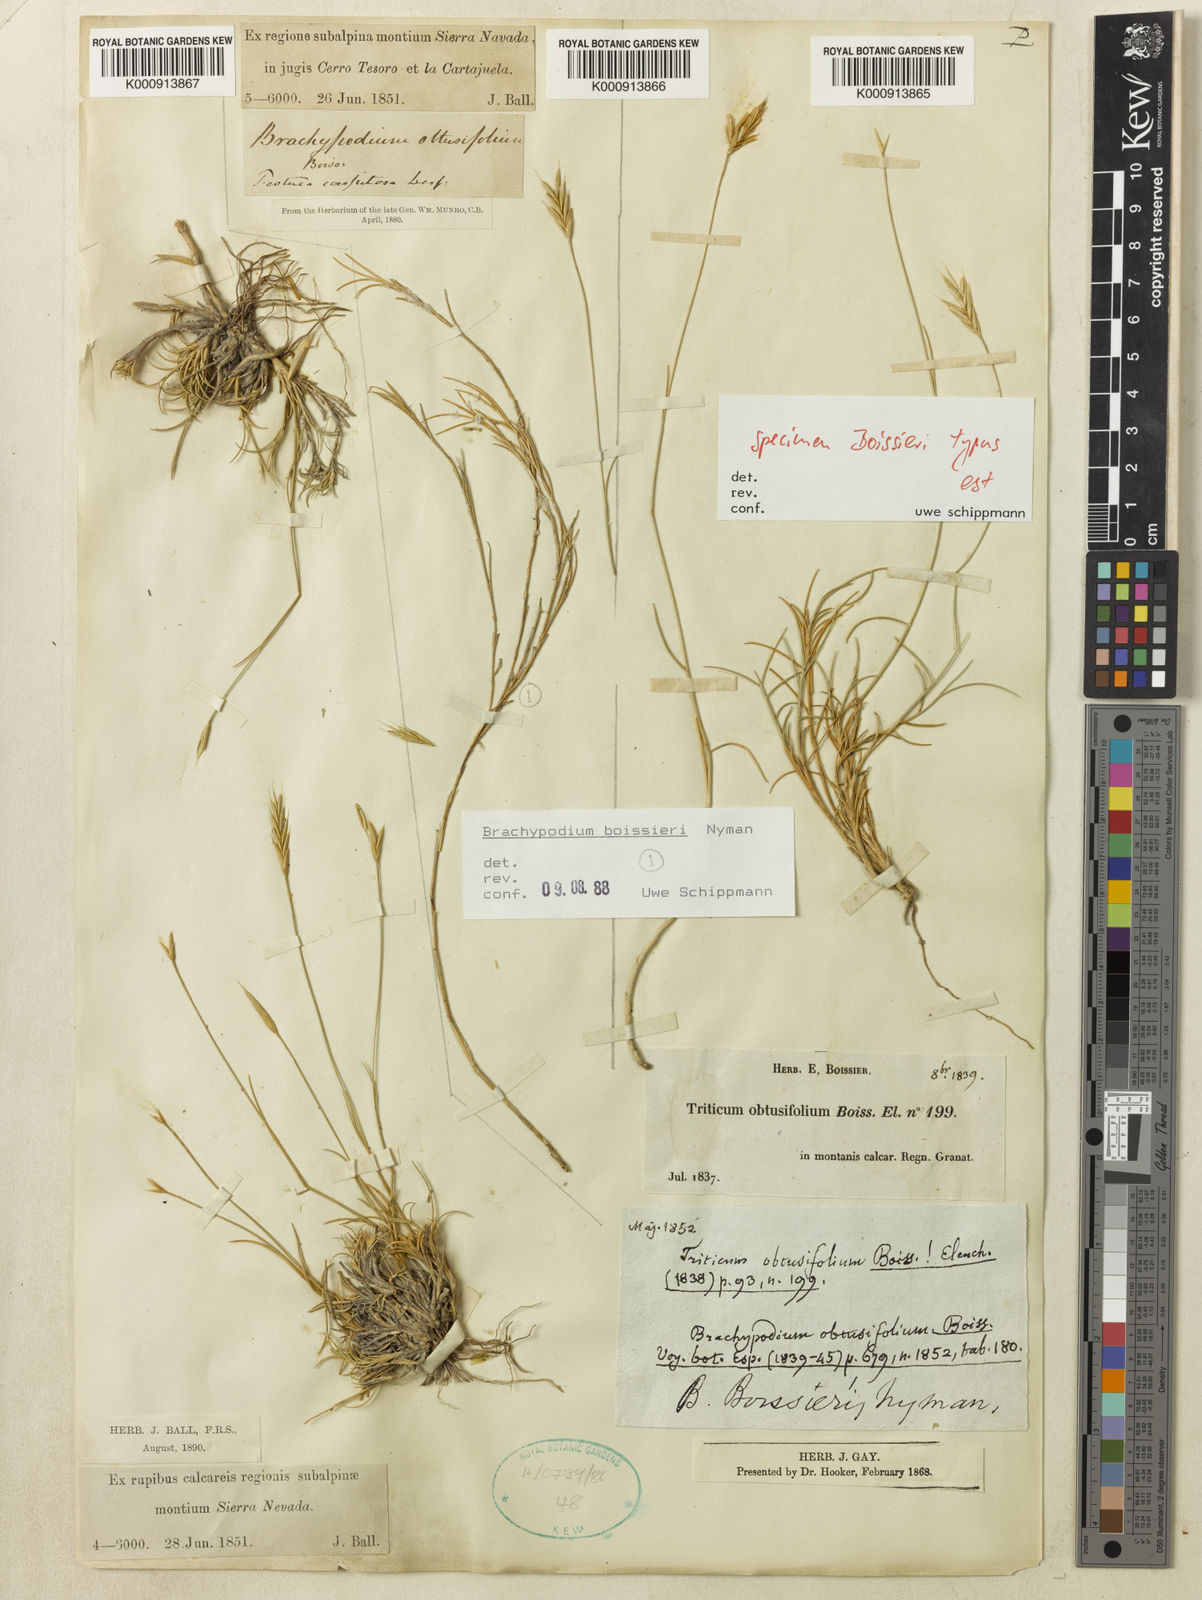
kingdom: Plantae
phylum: Tracheophyta
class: Liliopsida
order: Poales
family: Poaceae
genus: Brachypodium
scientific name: Brachypodium retusum
